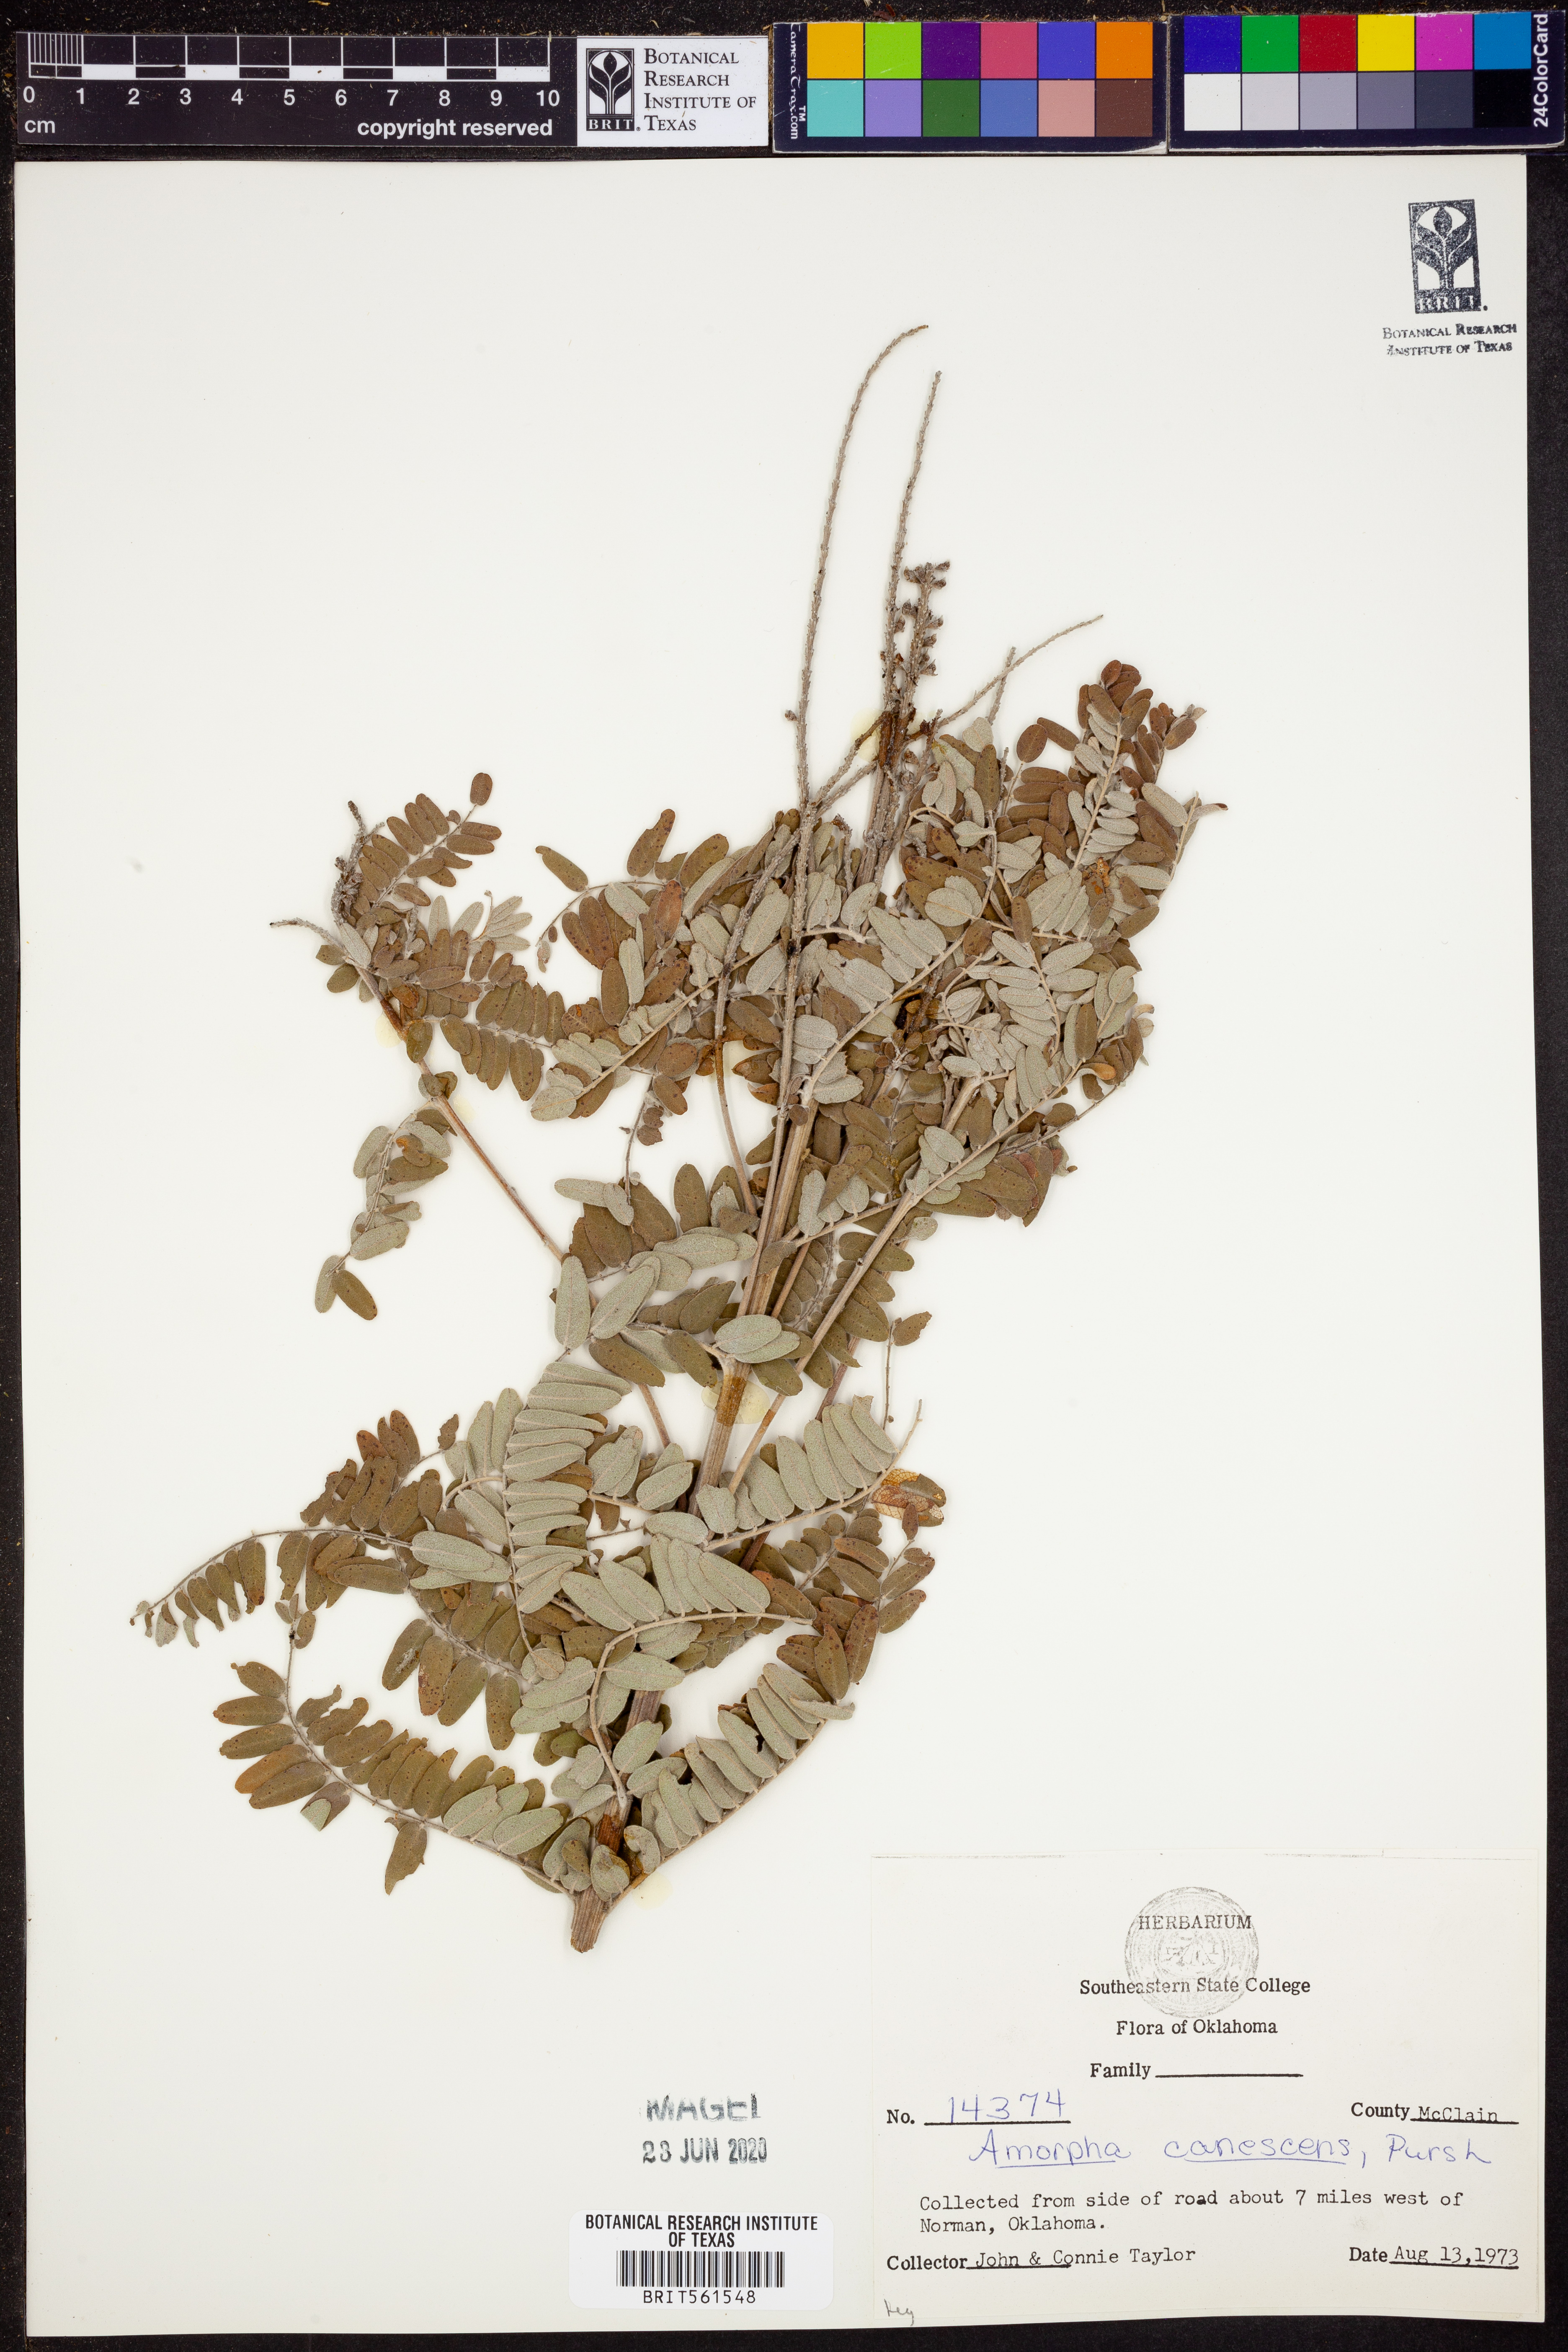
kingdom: Plantae
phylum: Tracheophyta
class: Magnoliopsida
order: Fabales
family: Fabaceae
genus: Amorpha
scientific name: Amorpha canescens
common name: Leadplant
